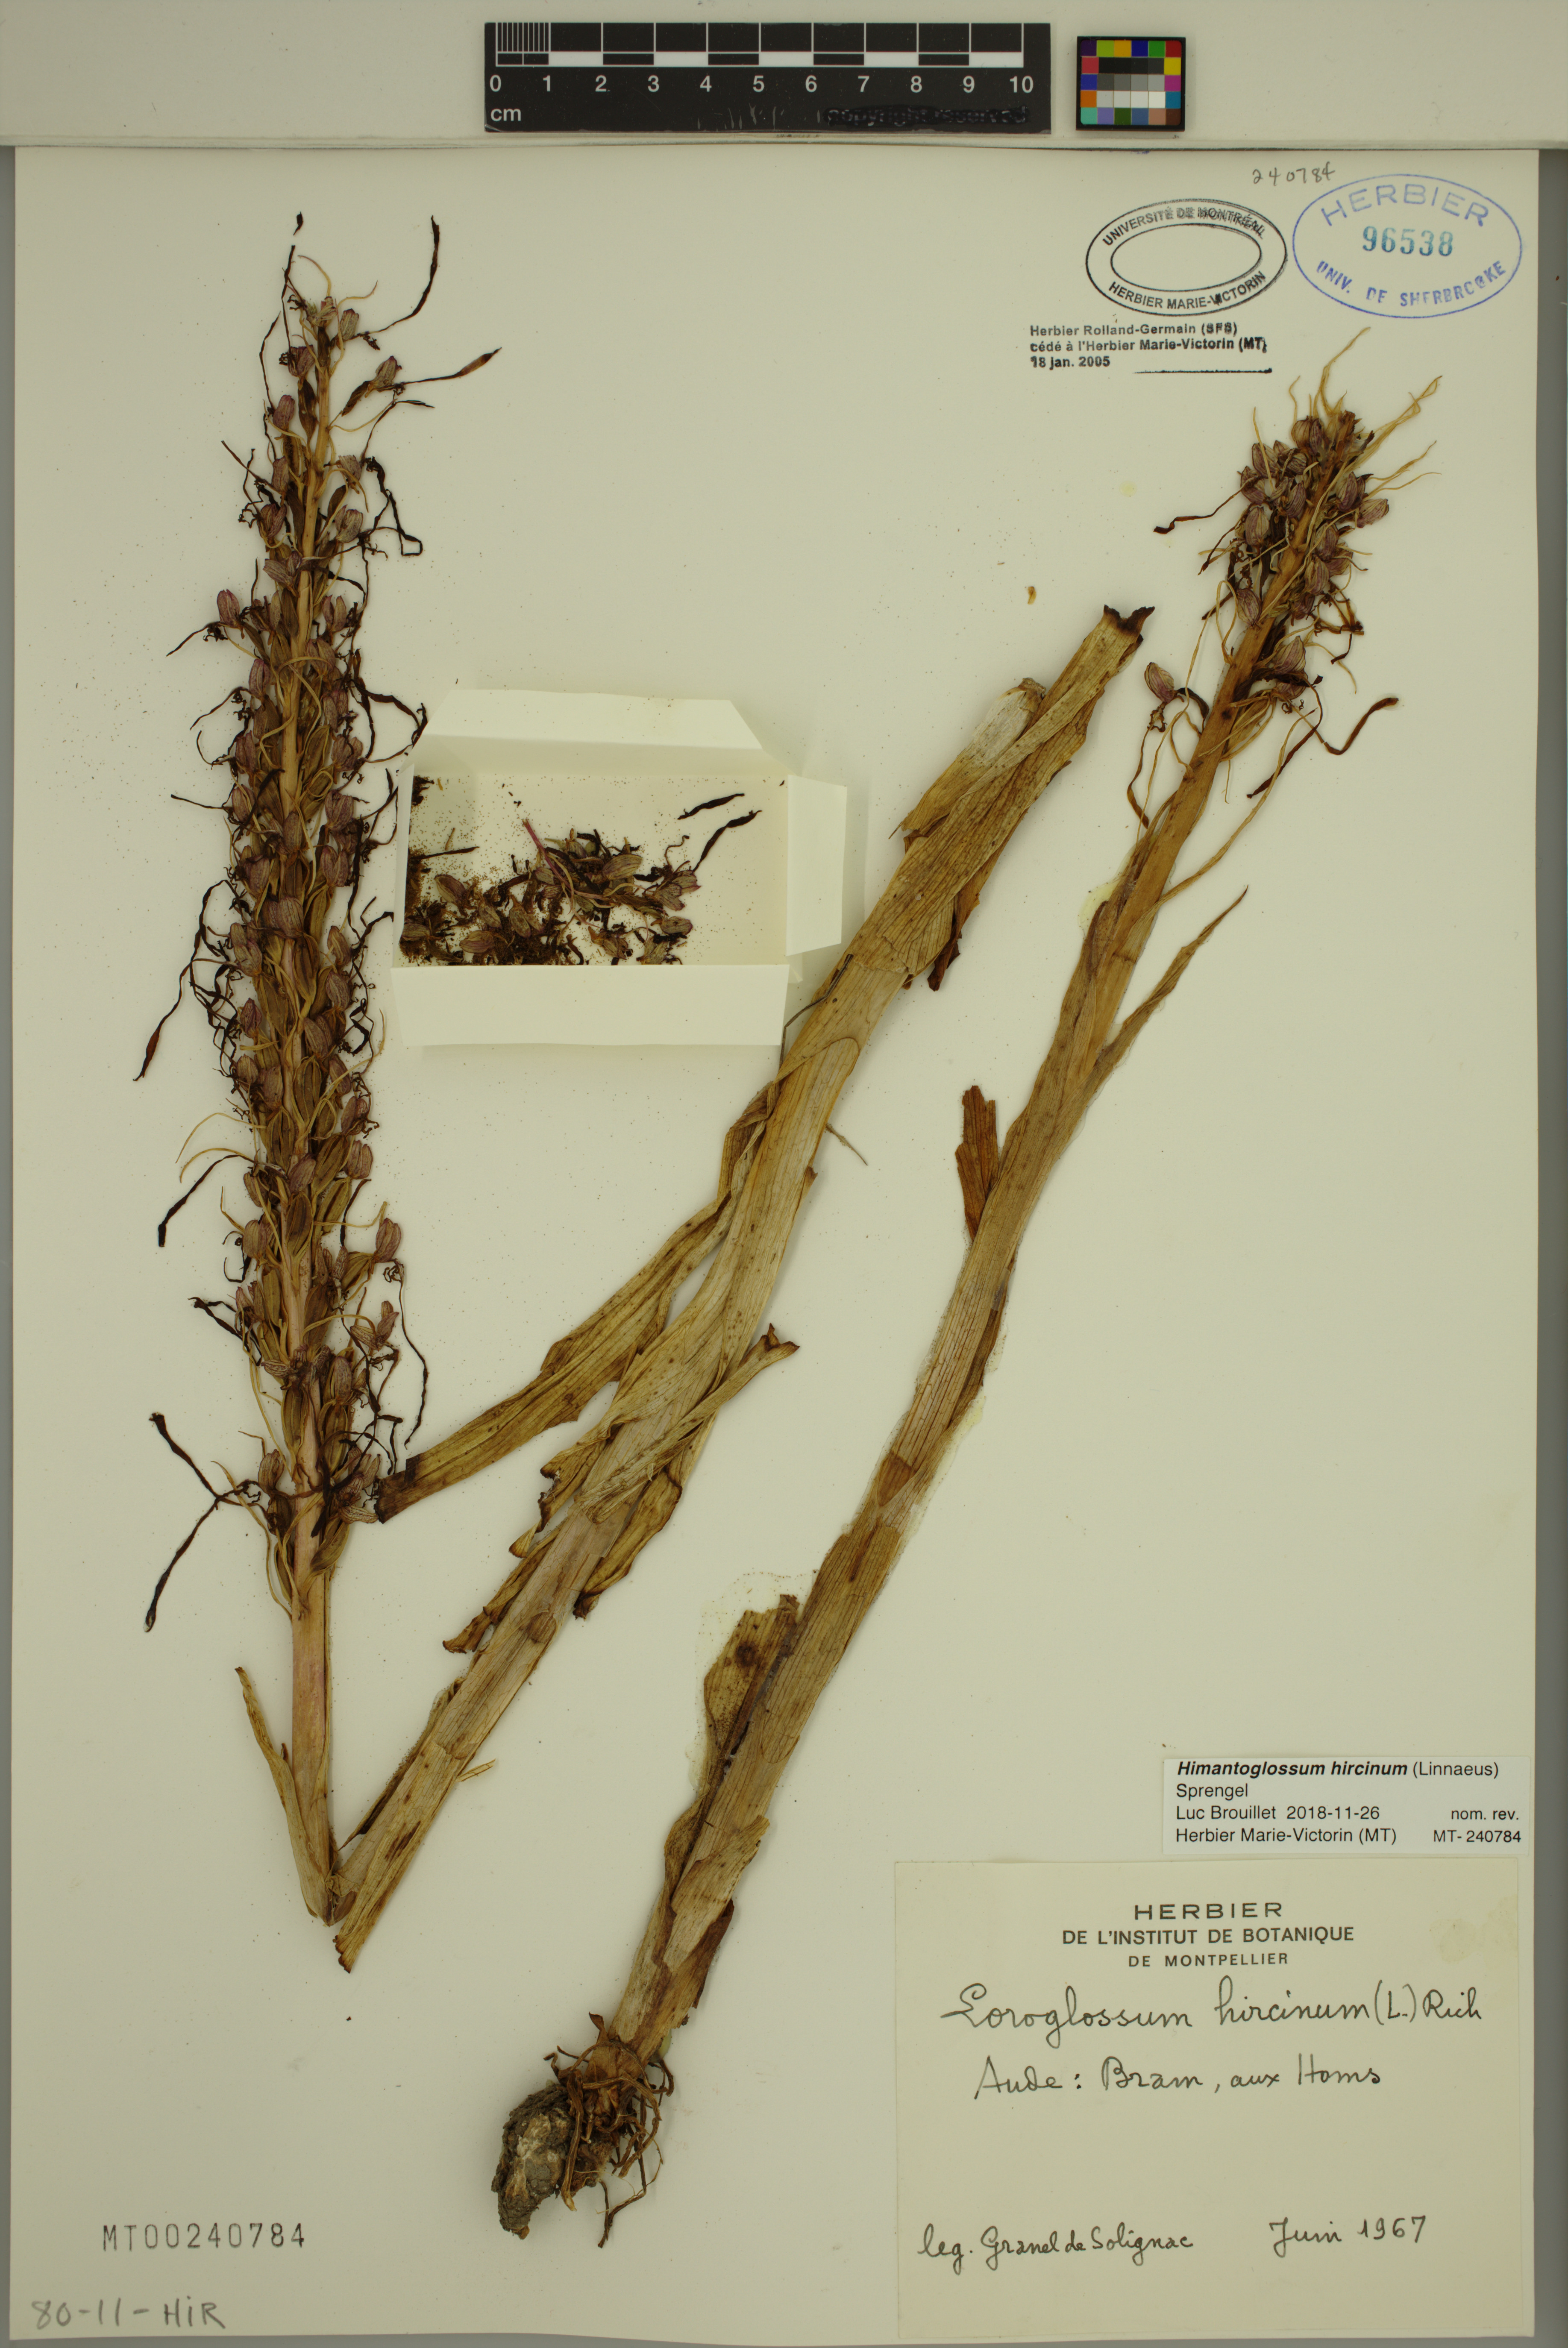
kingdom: Plantae
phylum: Tracheophyta
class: Liliopsida
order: Asparagales
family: Orchidaceae
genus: Himantoglossum
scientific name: Himantoglossum hircinum
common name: Lizard orchid
